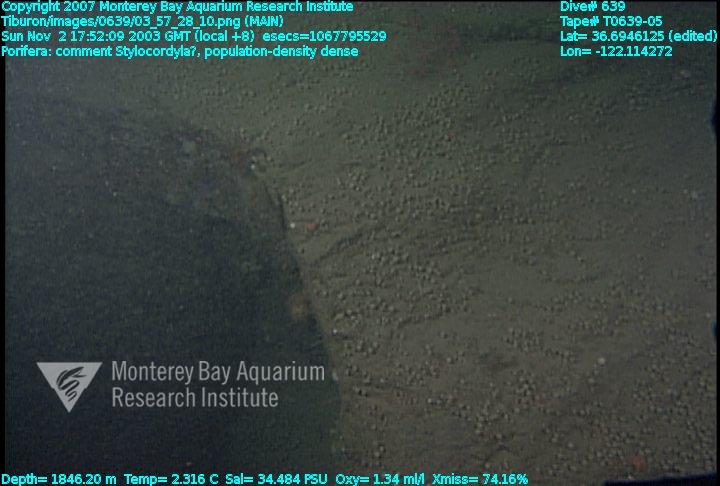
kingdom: Animalia
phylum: Porifera
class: Demospongiae
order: Suberitida
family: Stylocordylidae
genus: Stylocordyla
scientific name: Stylocordyla
